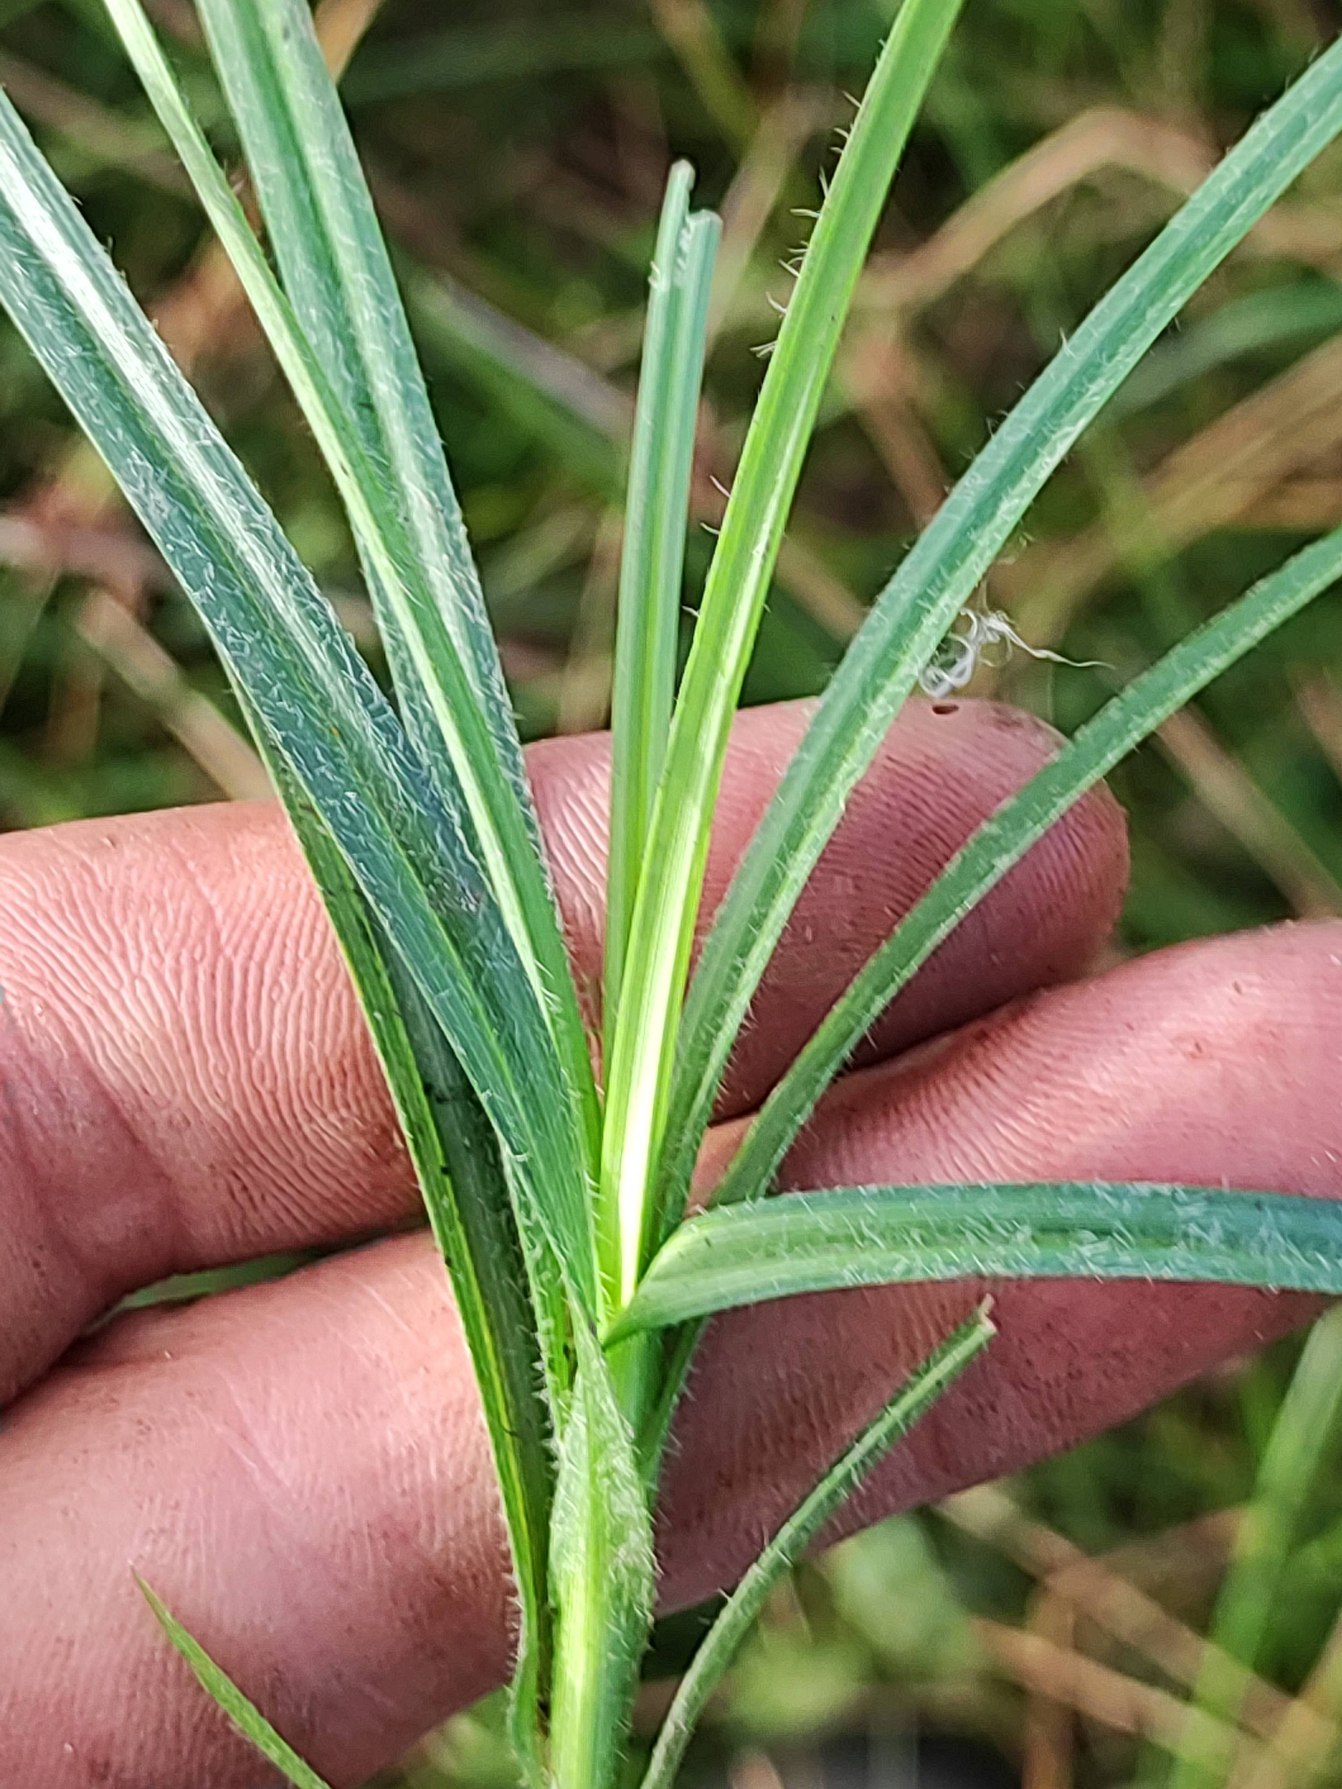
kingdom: Plantae
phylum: Tracheophyta
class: Liliopsida
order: Poales
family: Cyperaceae
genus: Carex
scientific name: Carex hirta
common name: Håret star
